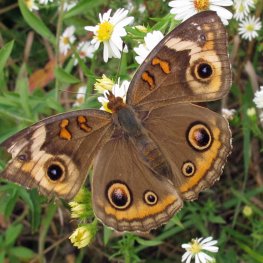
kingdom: Animalia
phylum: Arthropoda
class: Insecta
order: Lepidoptera
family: Nymphalidae
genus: Junonia
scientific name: Junonia coenia
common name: Common Buckeye
